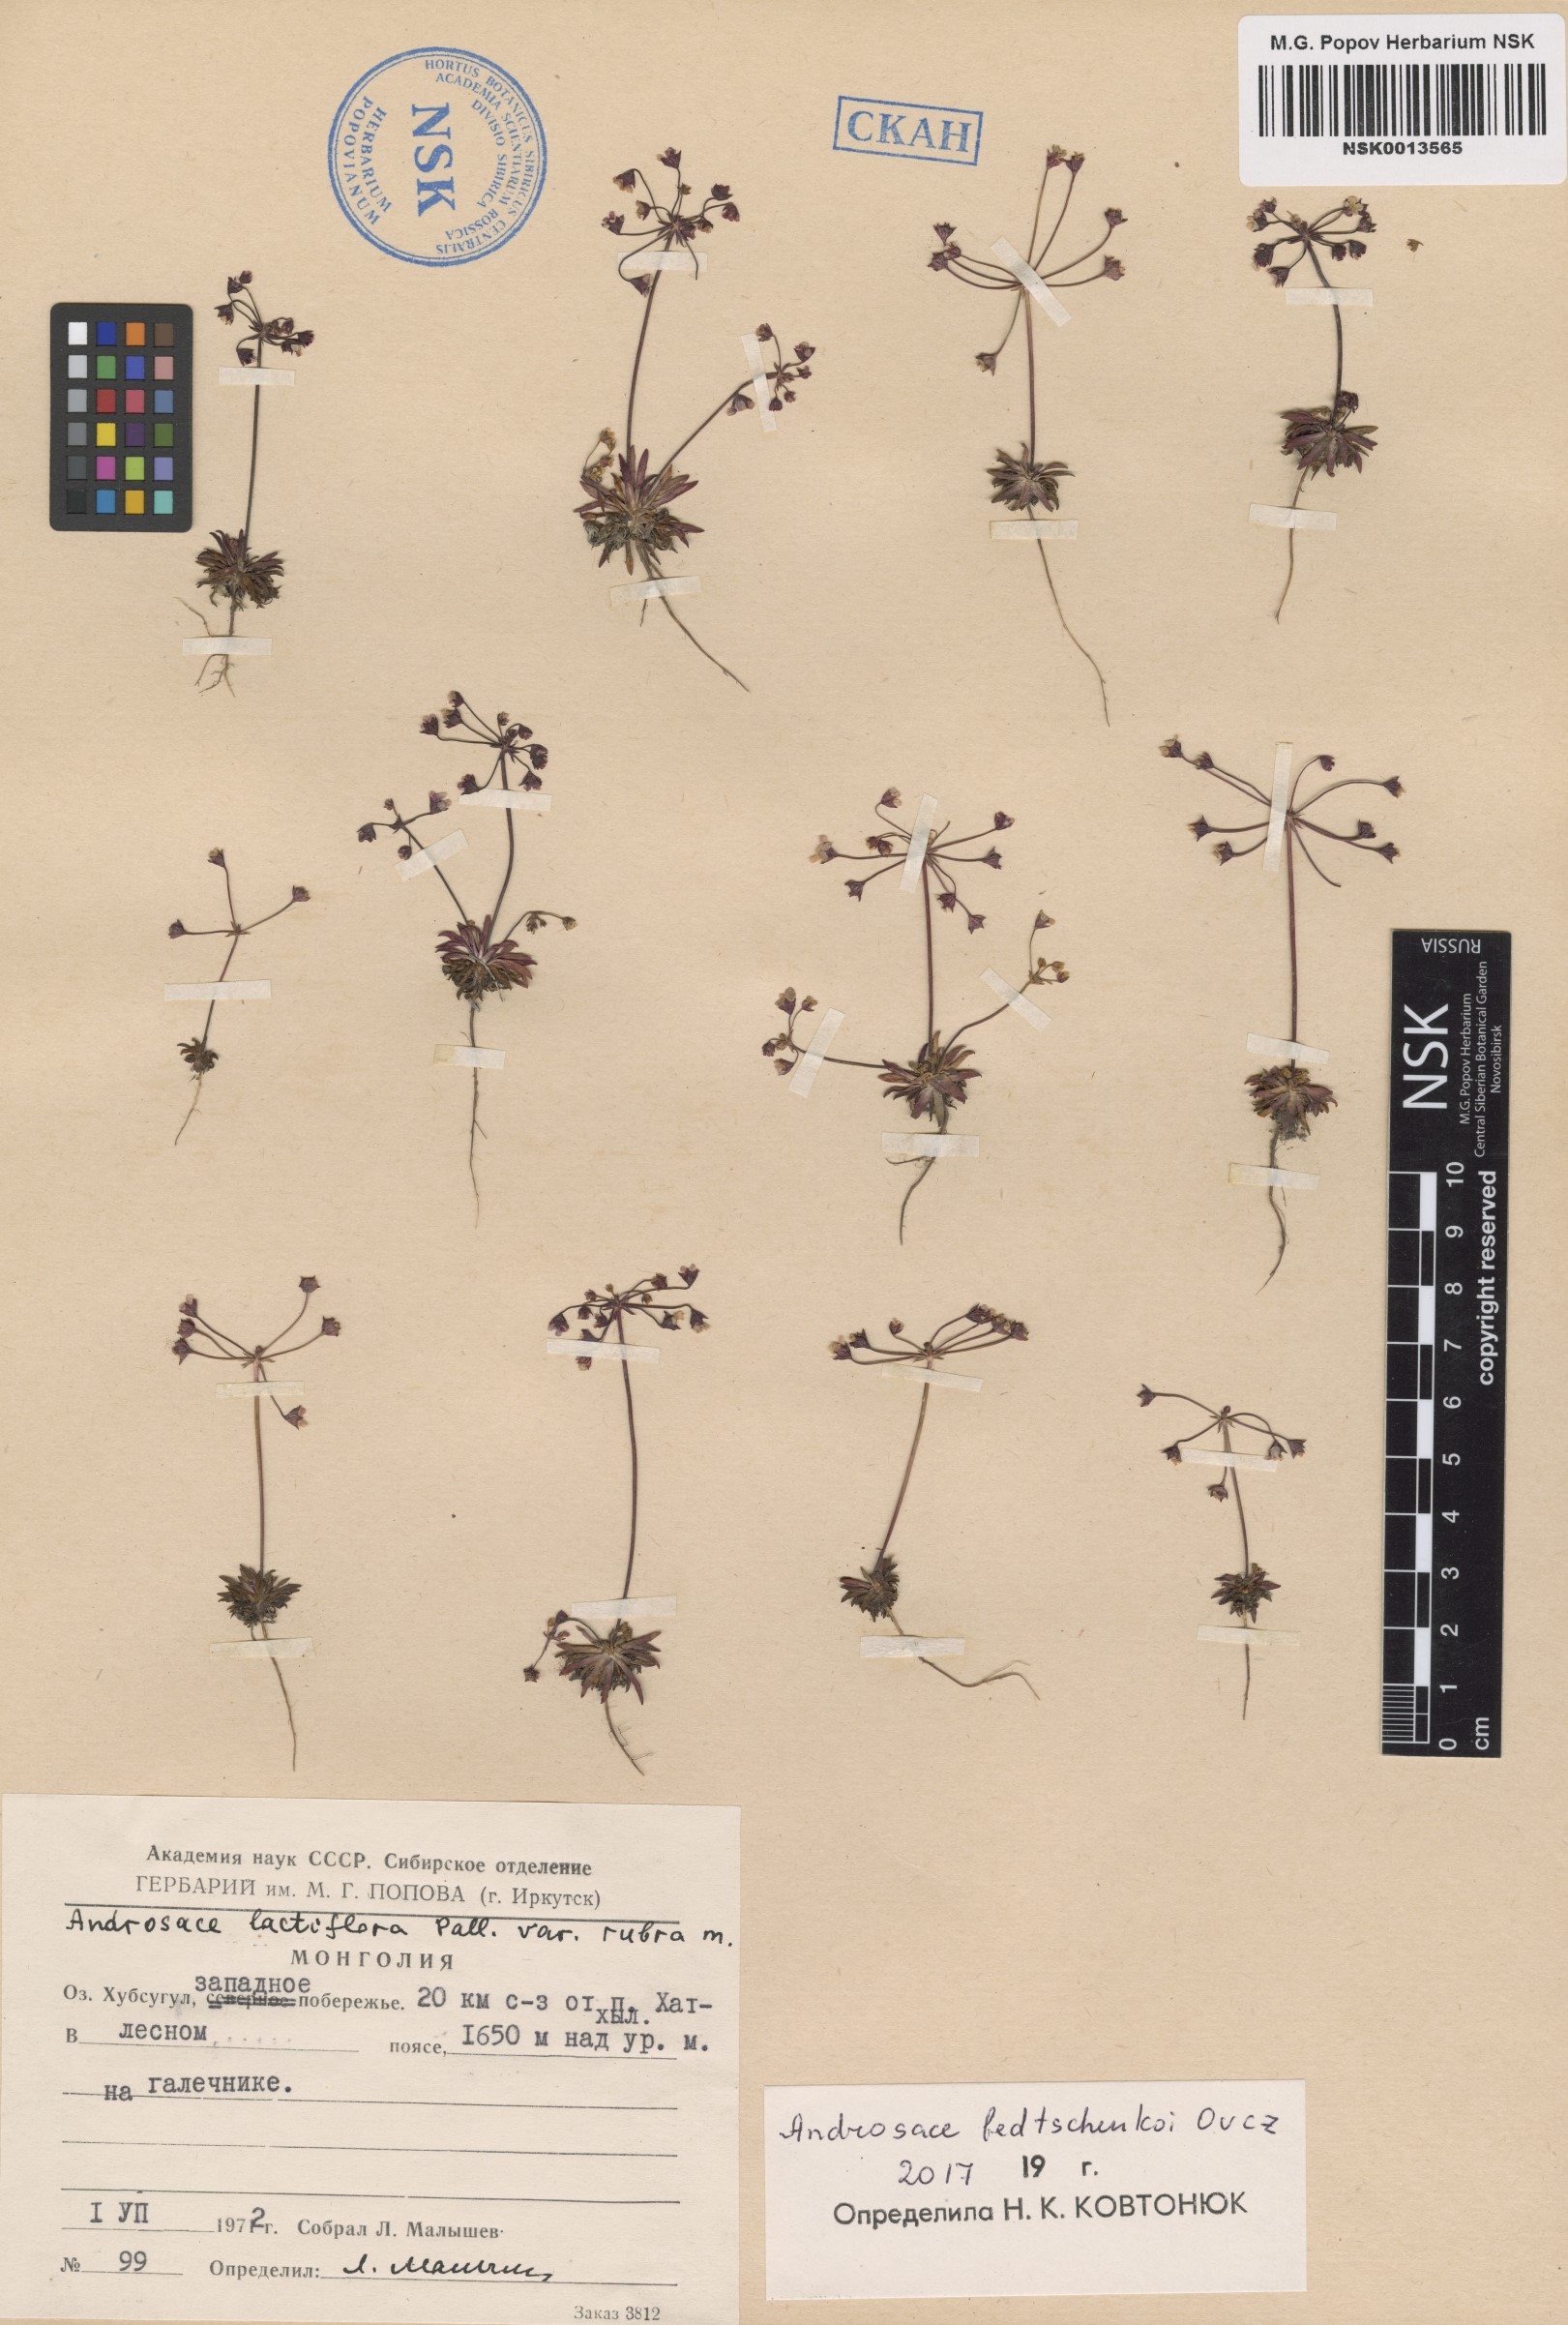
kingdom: Plantae
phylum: Tracheophyta
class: Magnoliopsida
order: Ericales
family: Primulaceae
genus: Androsace
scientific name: Androsace fedtschenkoi
